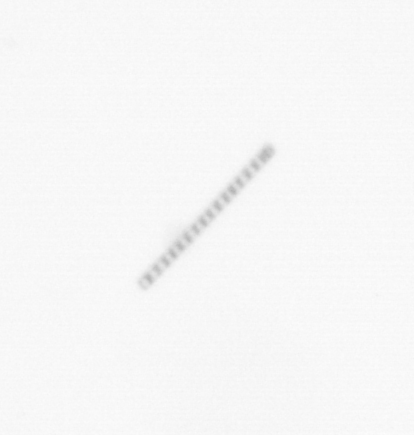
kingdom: Chromista
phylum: Ochrophyta
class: Bacillariophyceae
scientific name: Bacillariophyceae
